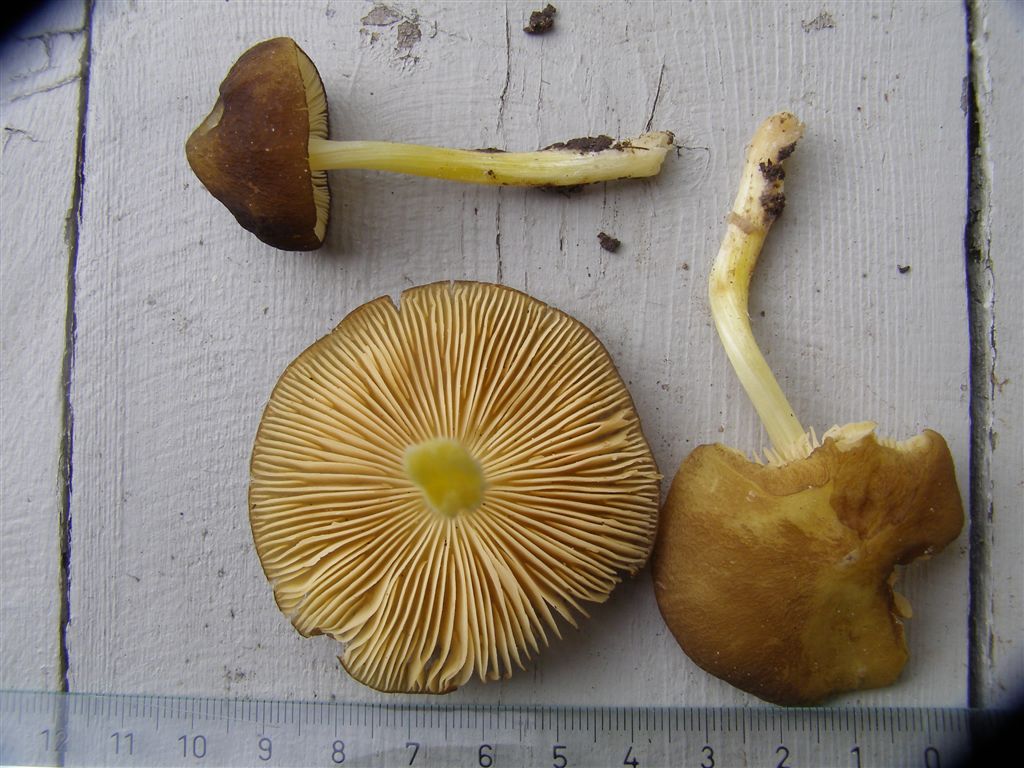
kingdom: Fungi
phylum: Basidiomycota
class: Agaricomycetes
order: Agaricales
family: Pluteaceae
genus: Pluteus
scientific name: Pluteus romellii
